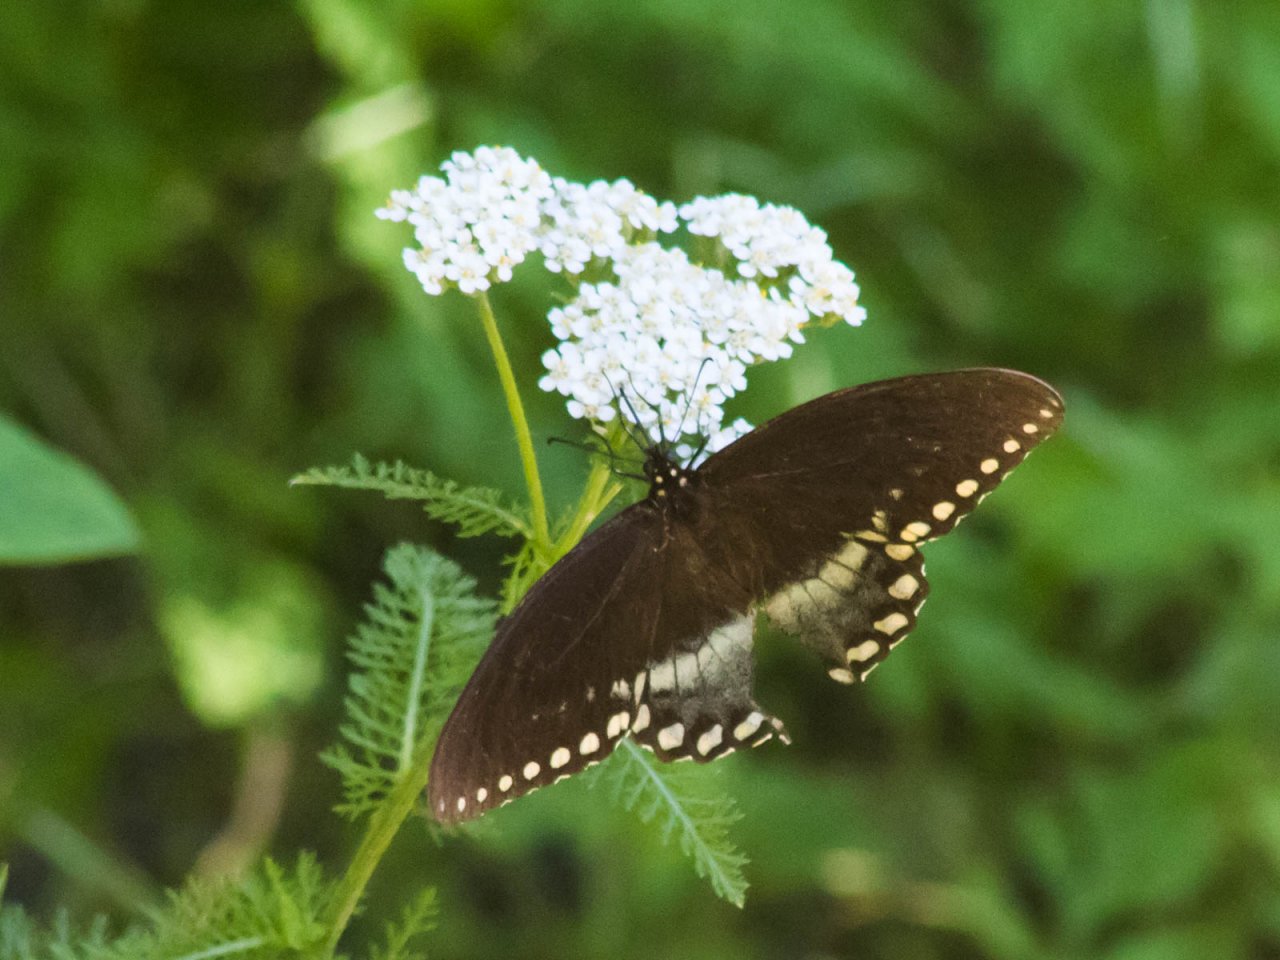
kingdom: Animalia
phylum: Arthropoda
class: Insecta
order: Lepidoptera
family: Papilionidae
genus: Pterourus
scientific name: Pterourus troilus
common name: Spicebush Swallowtail
